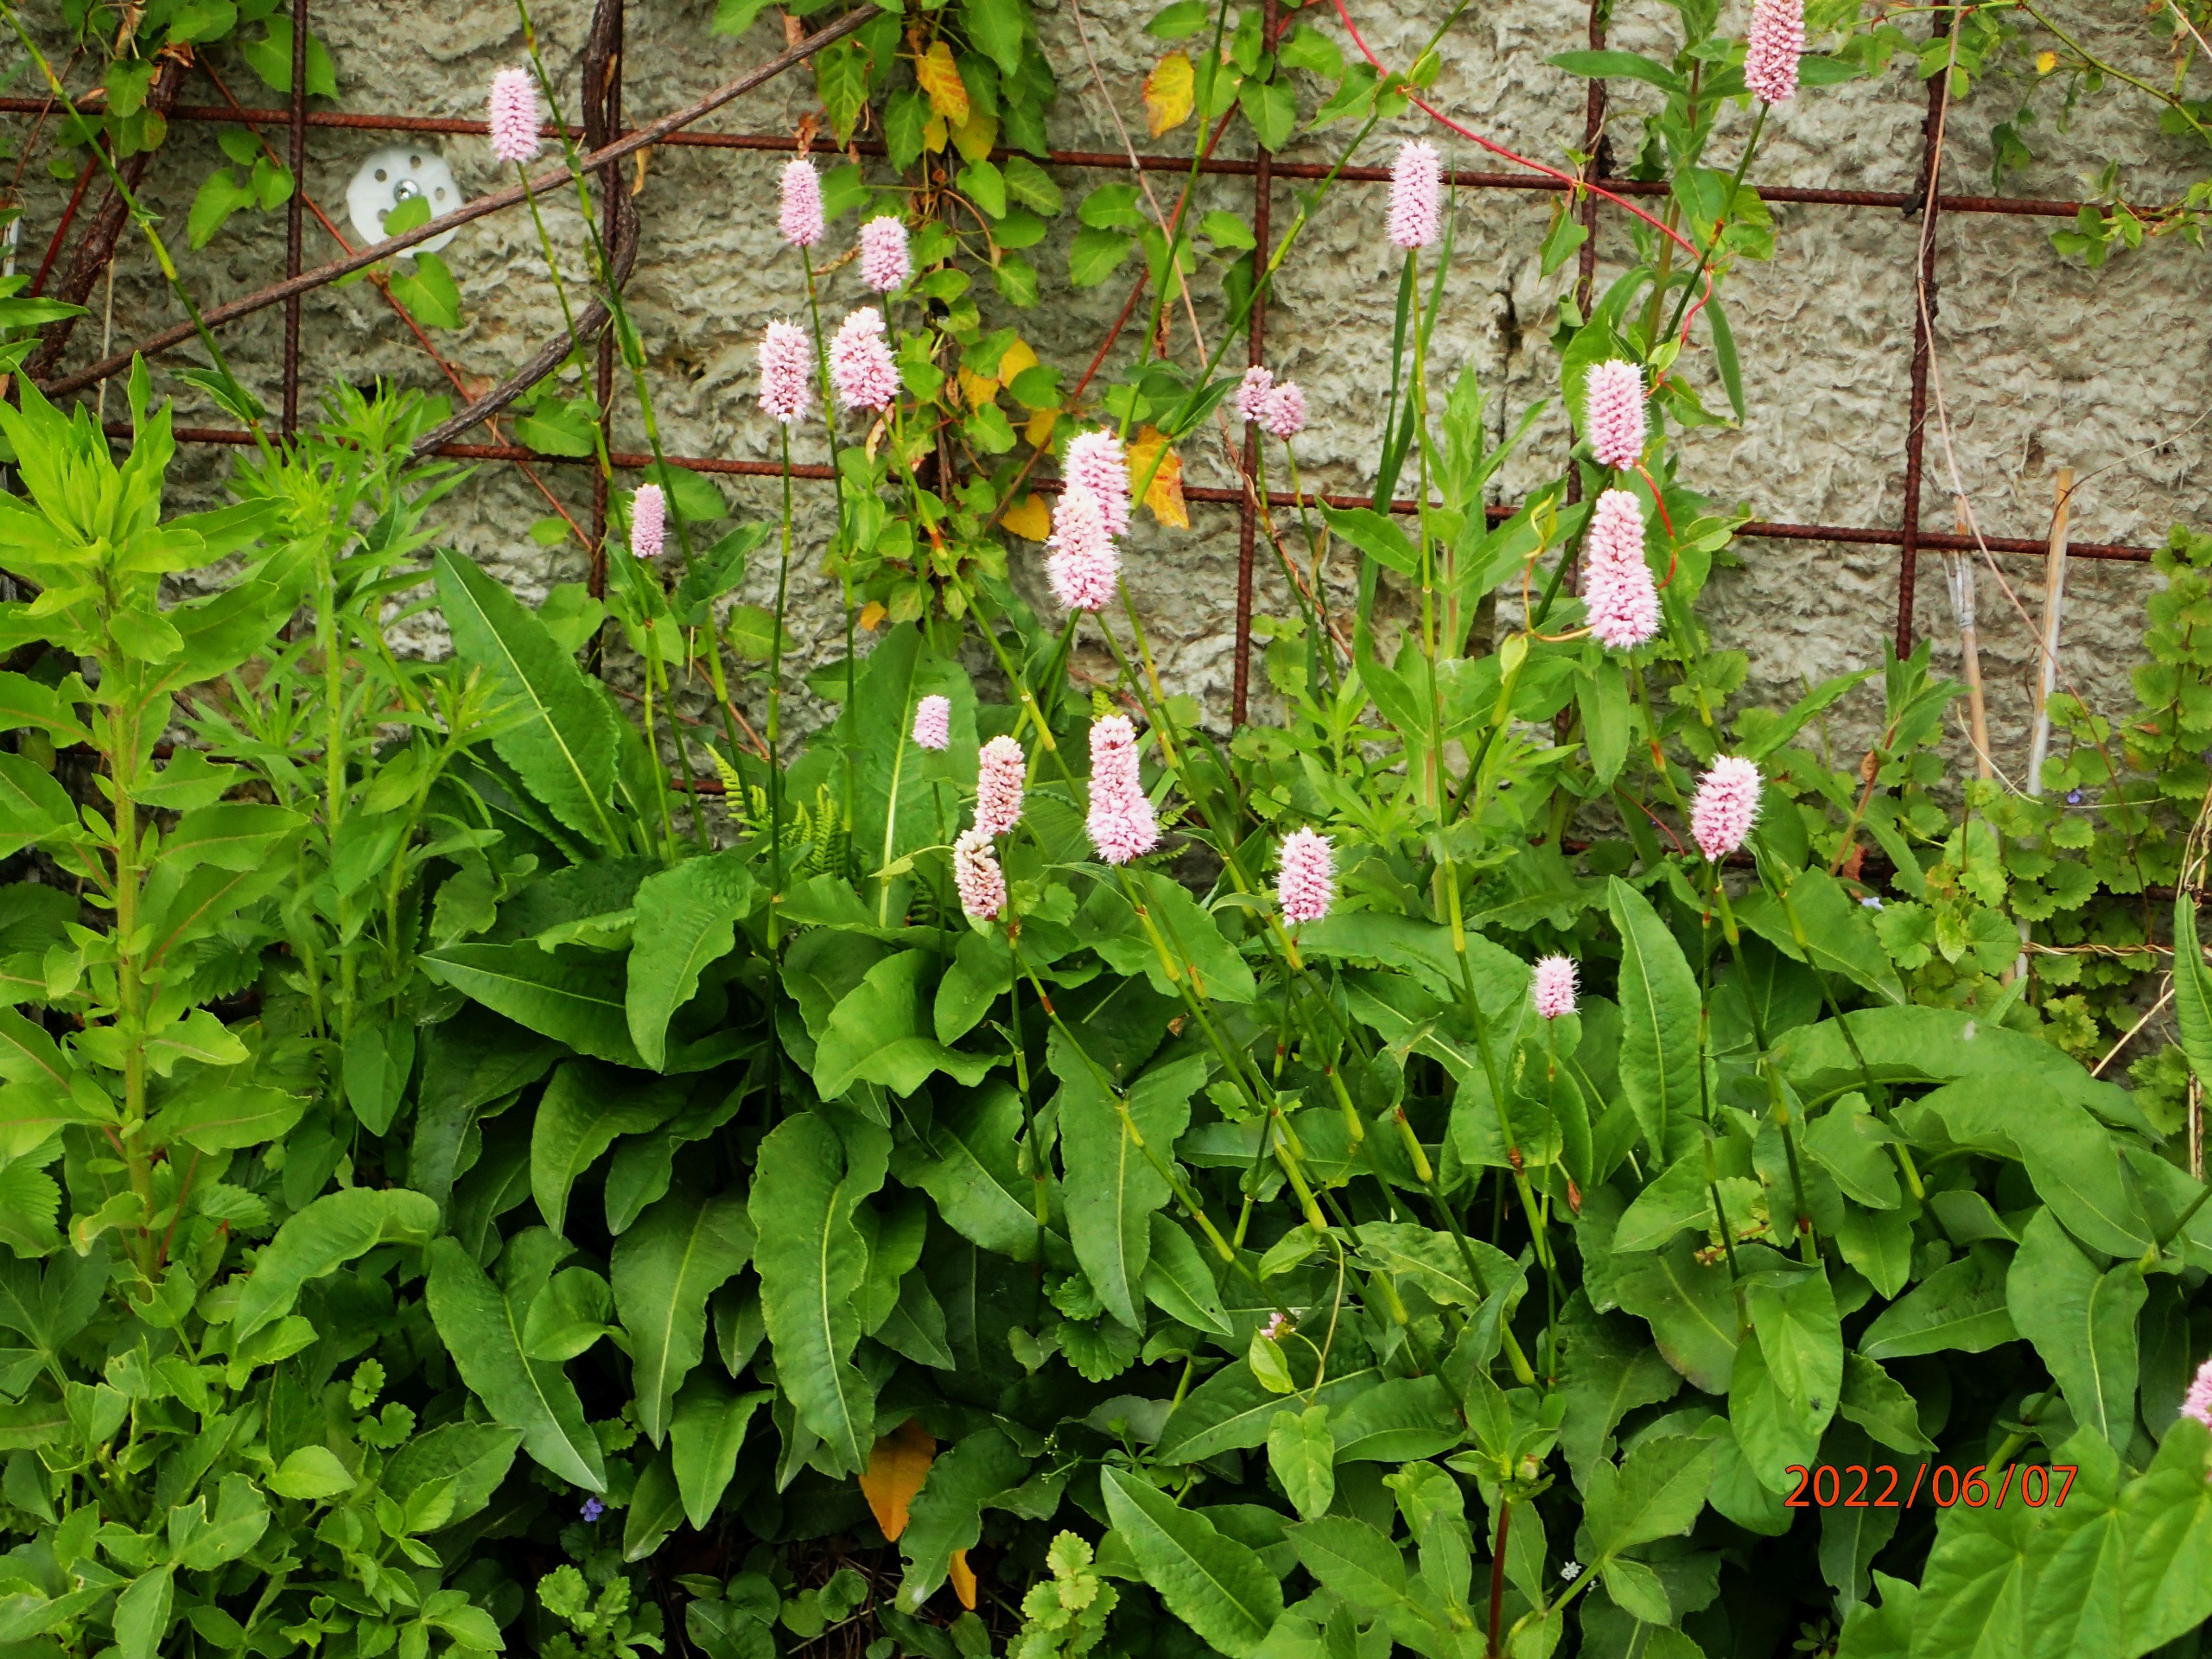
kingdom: Plantae
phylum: Tracheophyta
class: Magnoliopsida
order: Caryophyllales
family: Polygonaceae
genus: Bistorta
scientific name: Bistorta officinalis
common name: Slangeurt
